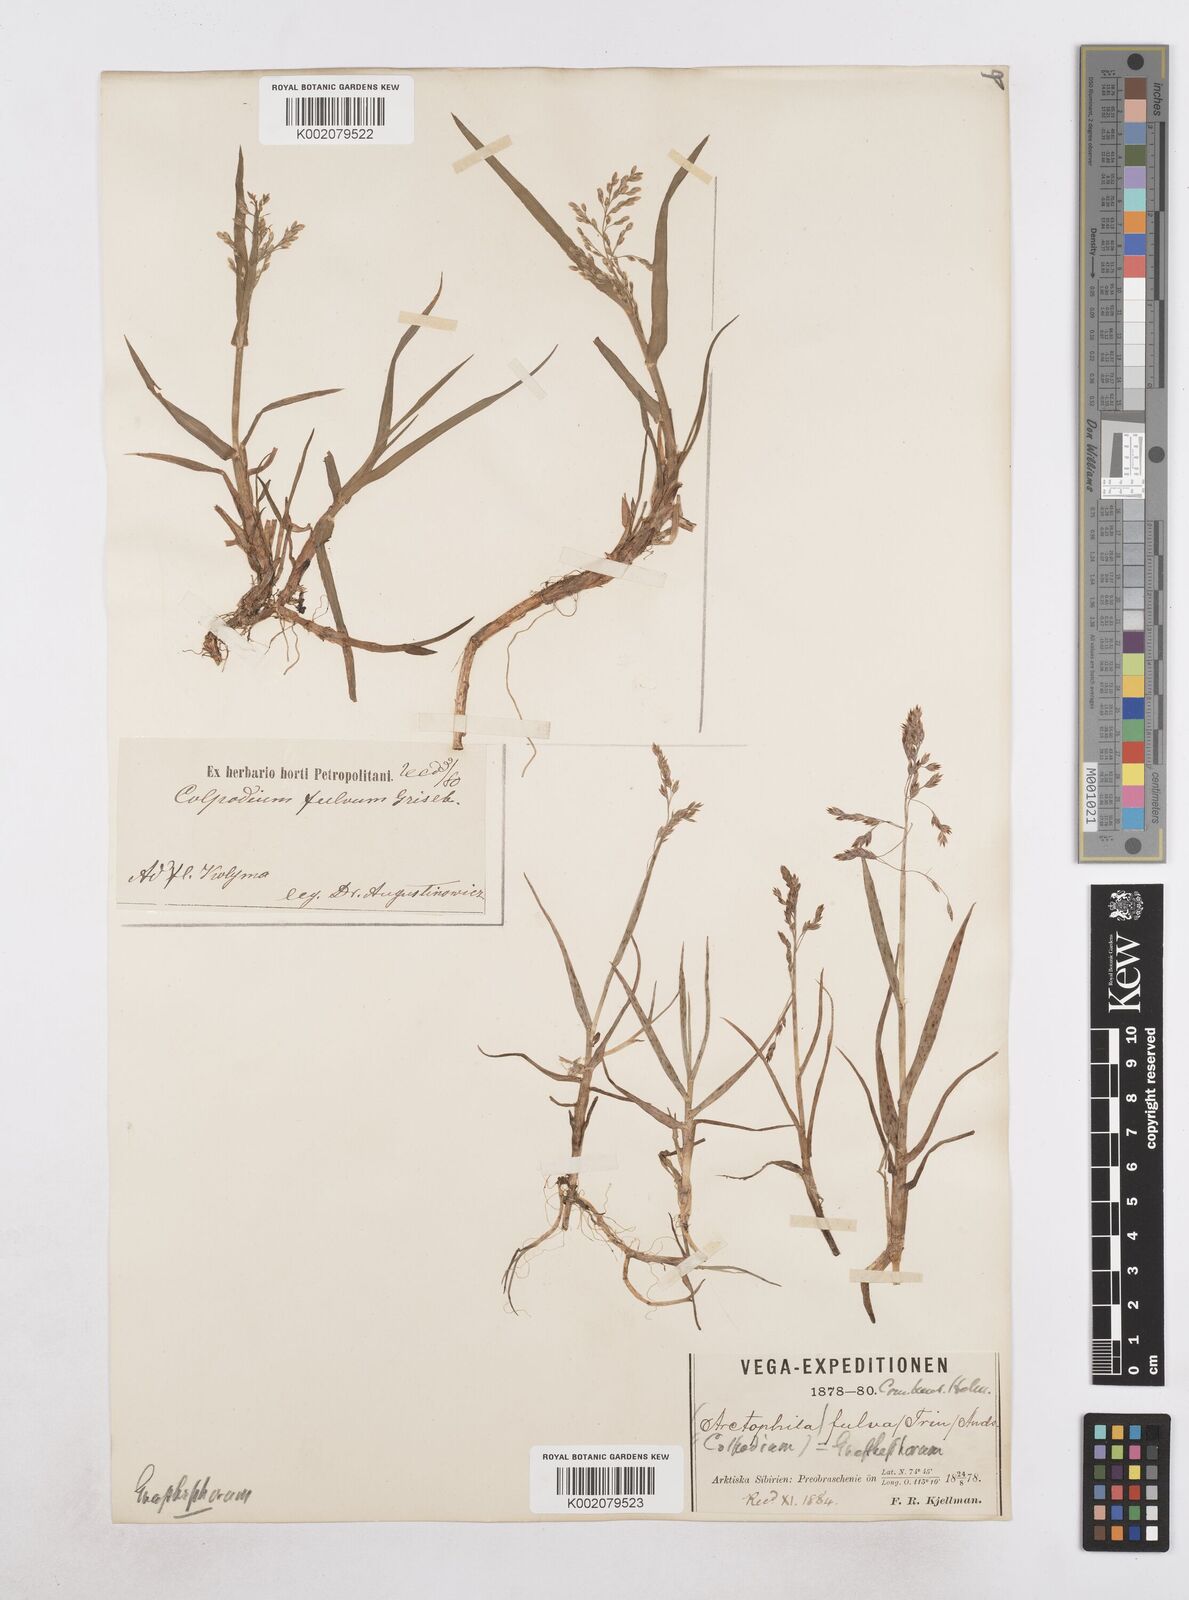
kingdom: Plantae
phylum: Tracheophyta
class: Liliopsida
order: Poales
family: Poaceae
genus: Dupontia
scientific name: Dupontia fulva
